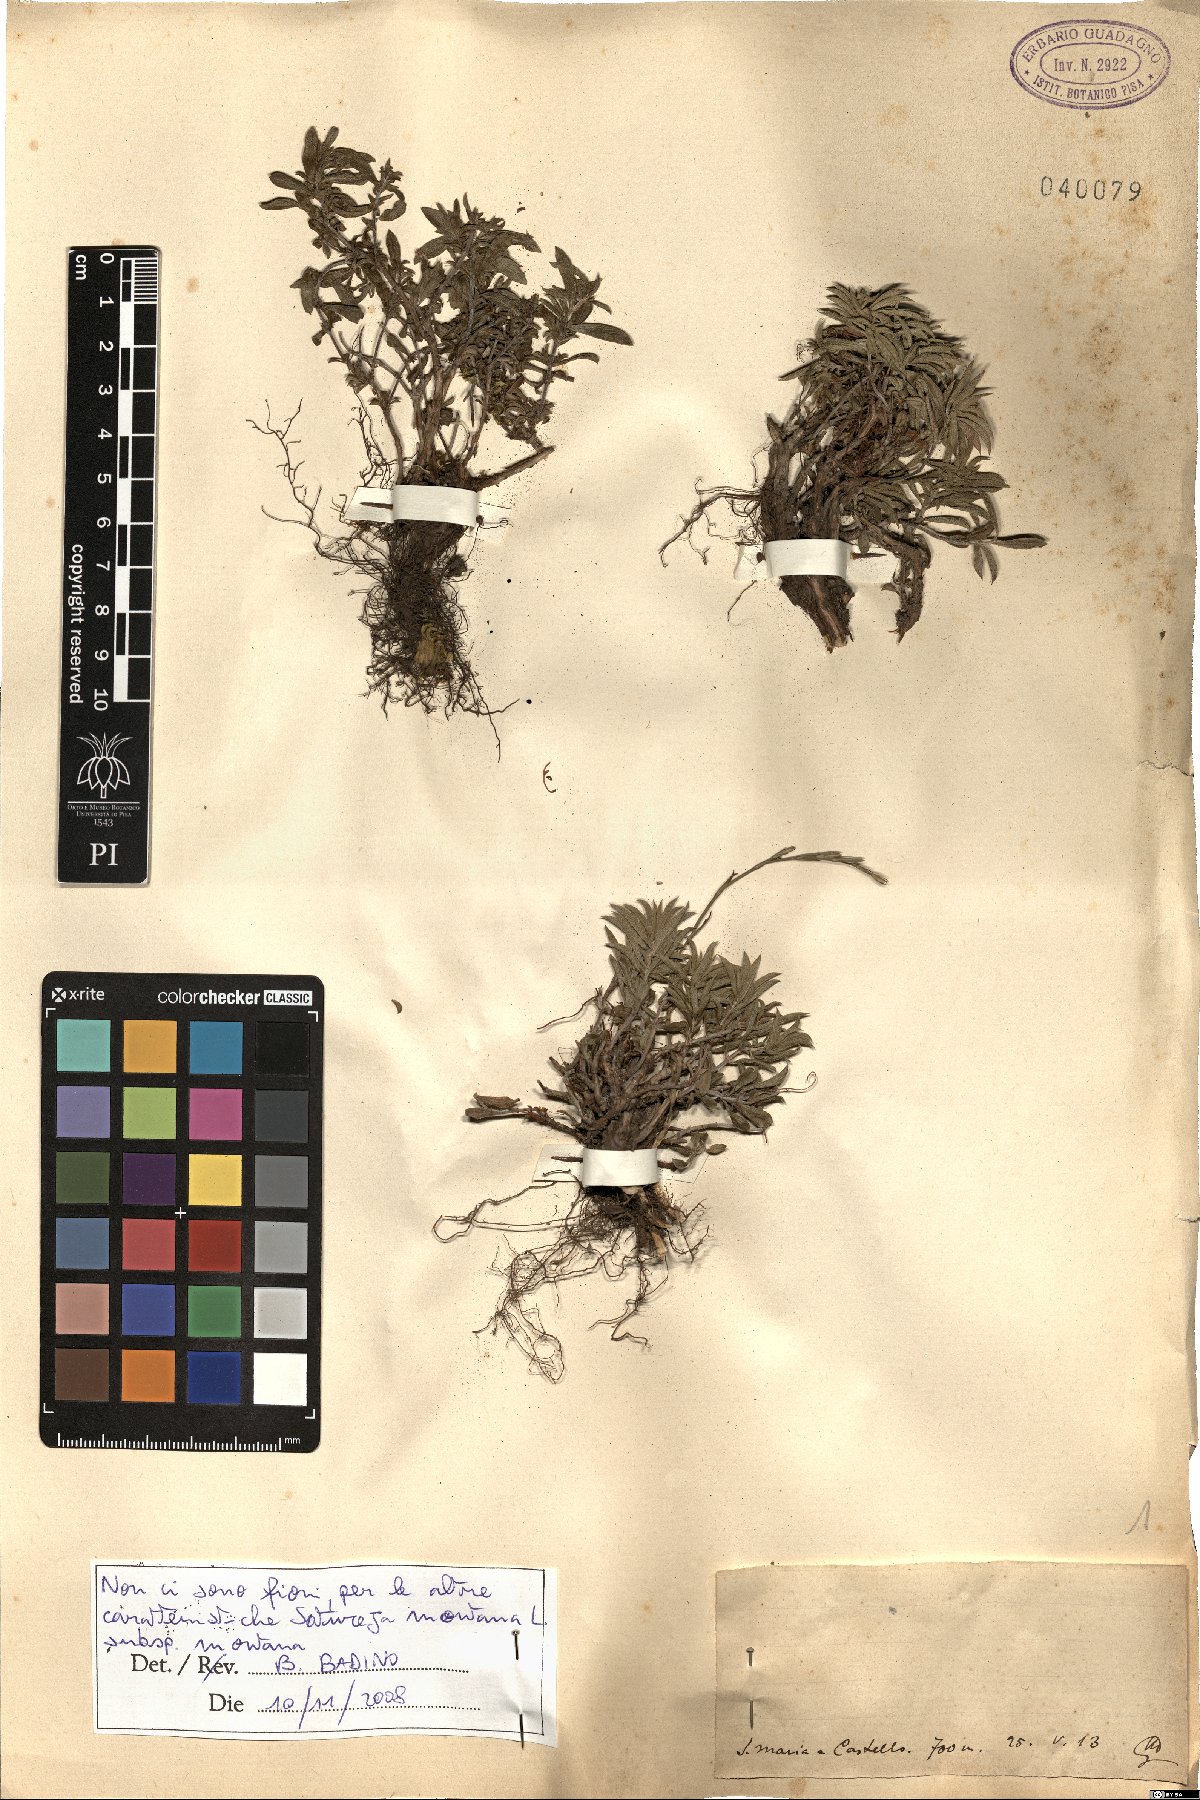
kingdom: Plantae
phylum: Tracheophyta
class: Magnoliopsida
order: Lamiales
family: Lamiaceae
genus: Satureja
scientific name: Satureja montana
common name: Winter savory
